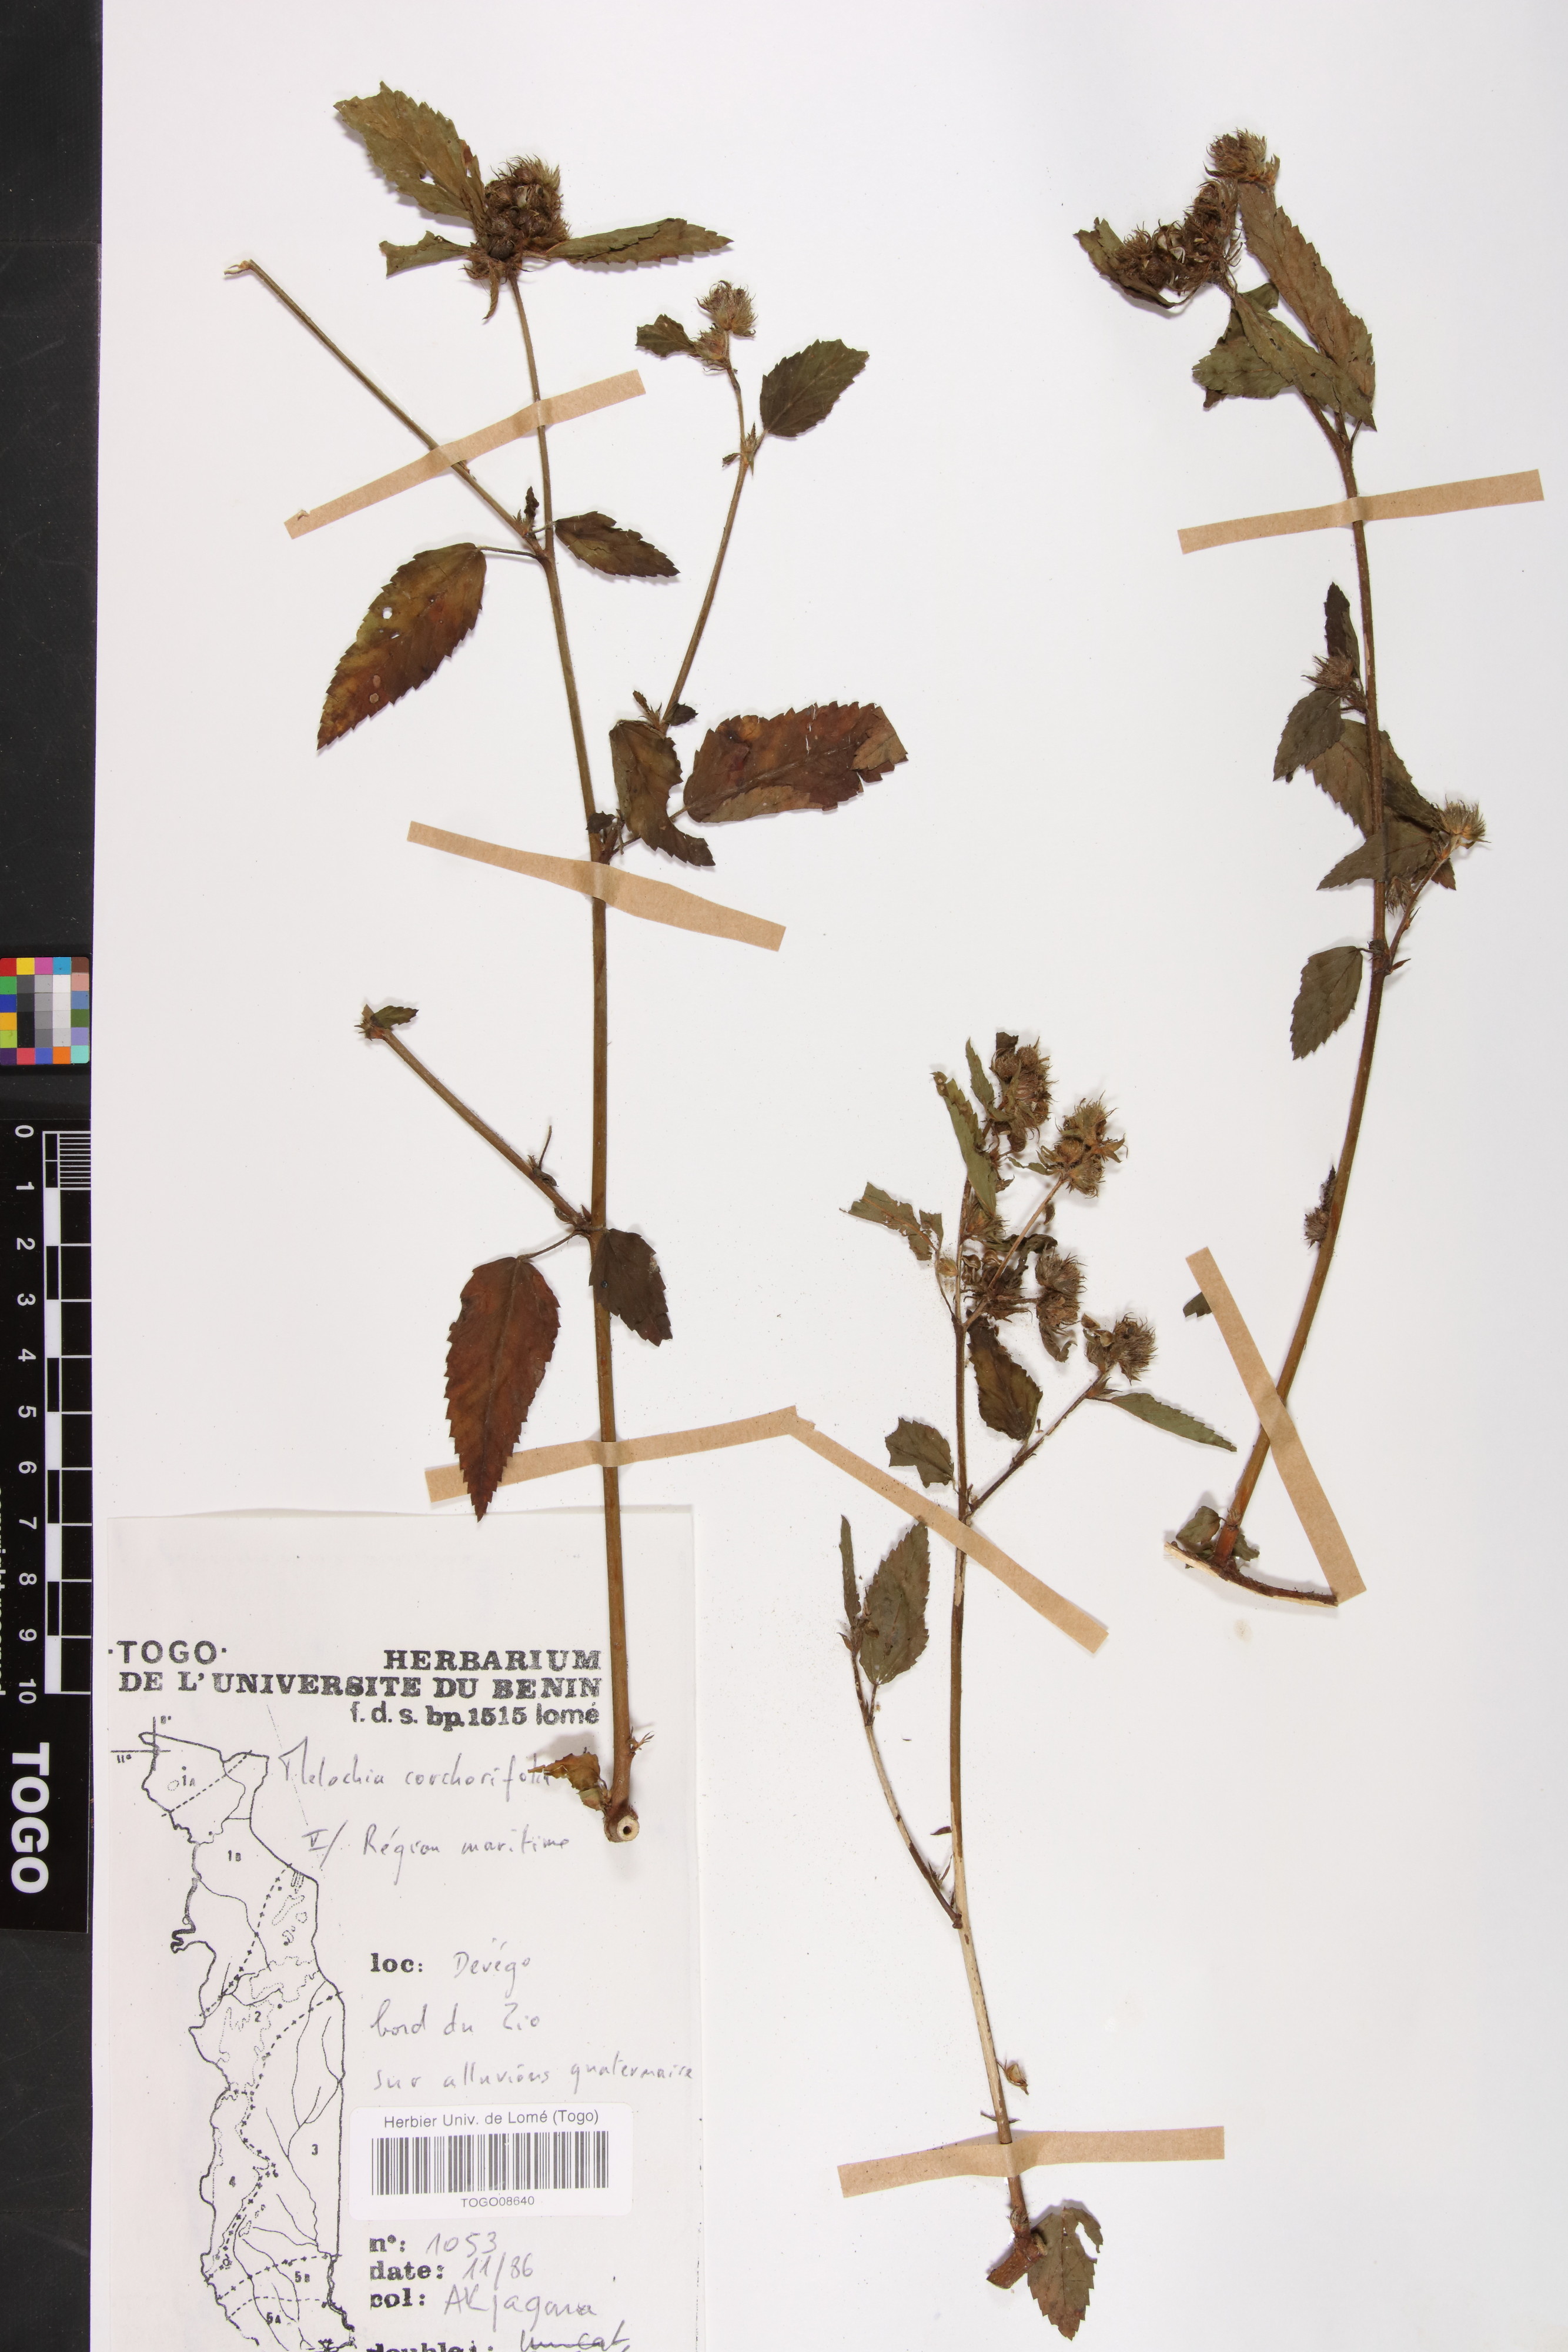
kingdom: Plantae
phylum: Tracheophyta
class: Magnoliopsida
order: Malvales
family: Malvaceae
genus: Melochia
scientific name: Melochia corchorifolia
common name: Chocolateweed
